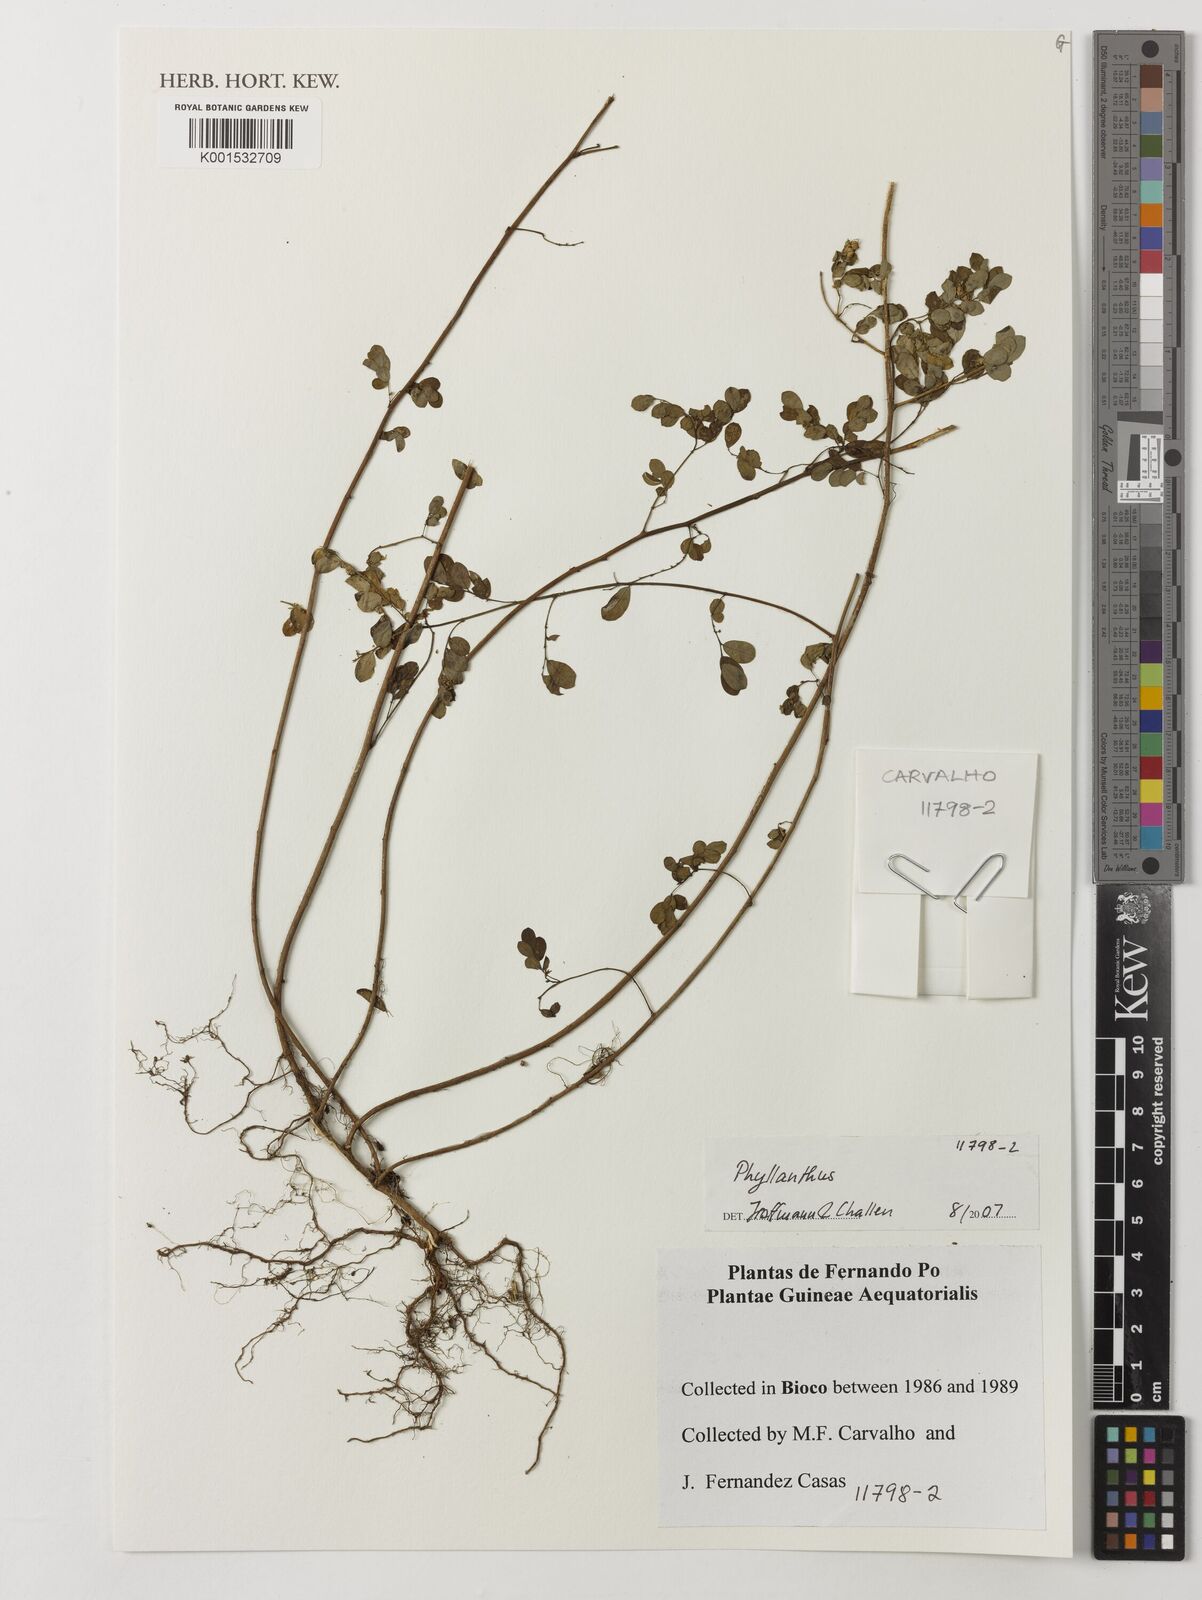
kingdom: Plantae
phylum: Tracheophyta
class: Magnoliopsida
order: Malpighiales
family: Phyllanthaceae
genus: Phyllanthus
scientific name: Phyllanthus
